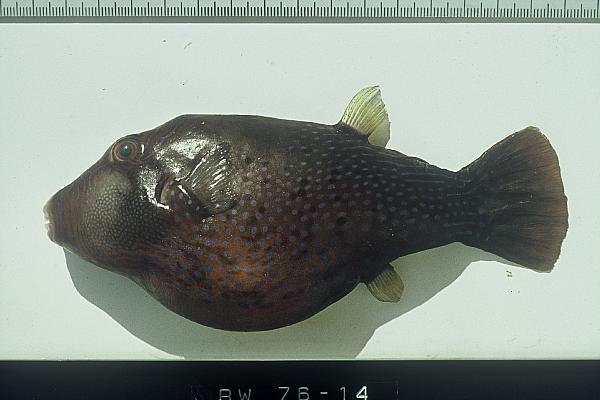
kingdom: Animalia
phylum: Chordata
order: Tetraodontiformes
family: Tetraodontidae
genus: Canthigaster
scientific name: Canthigaster amboinensis
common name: Ambon pufferfish
